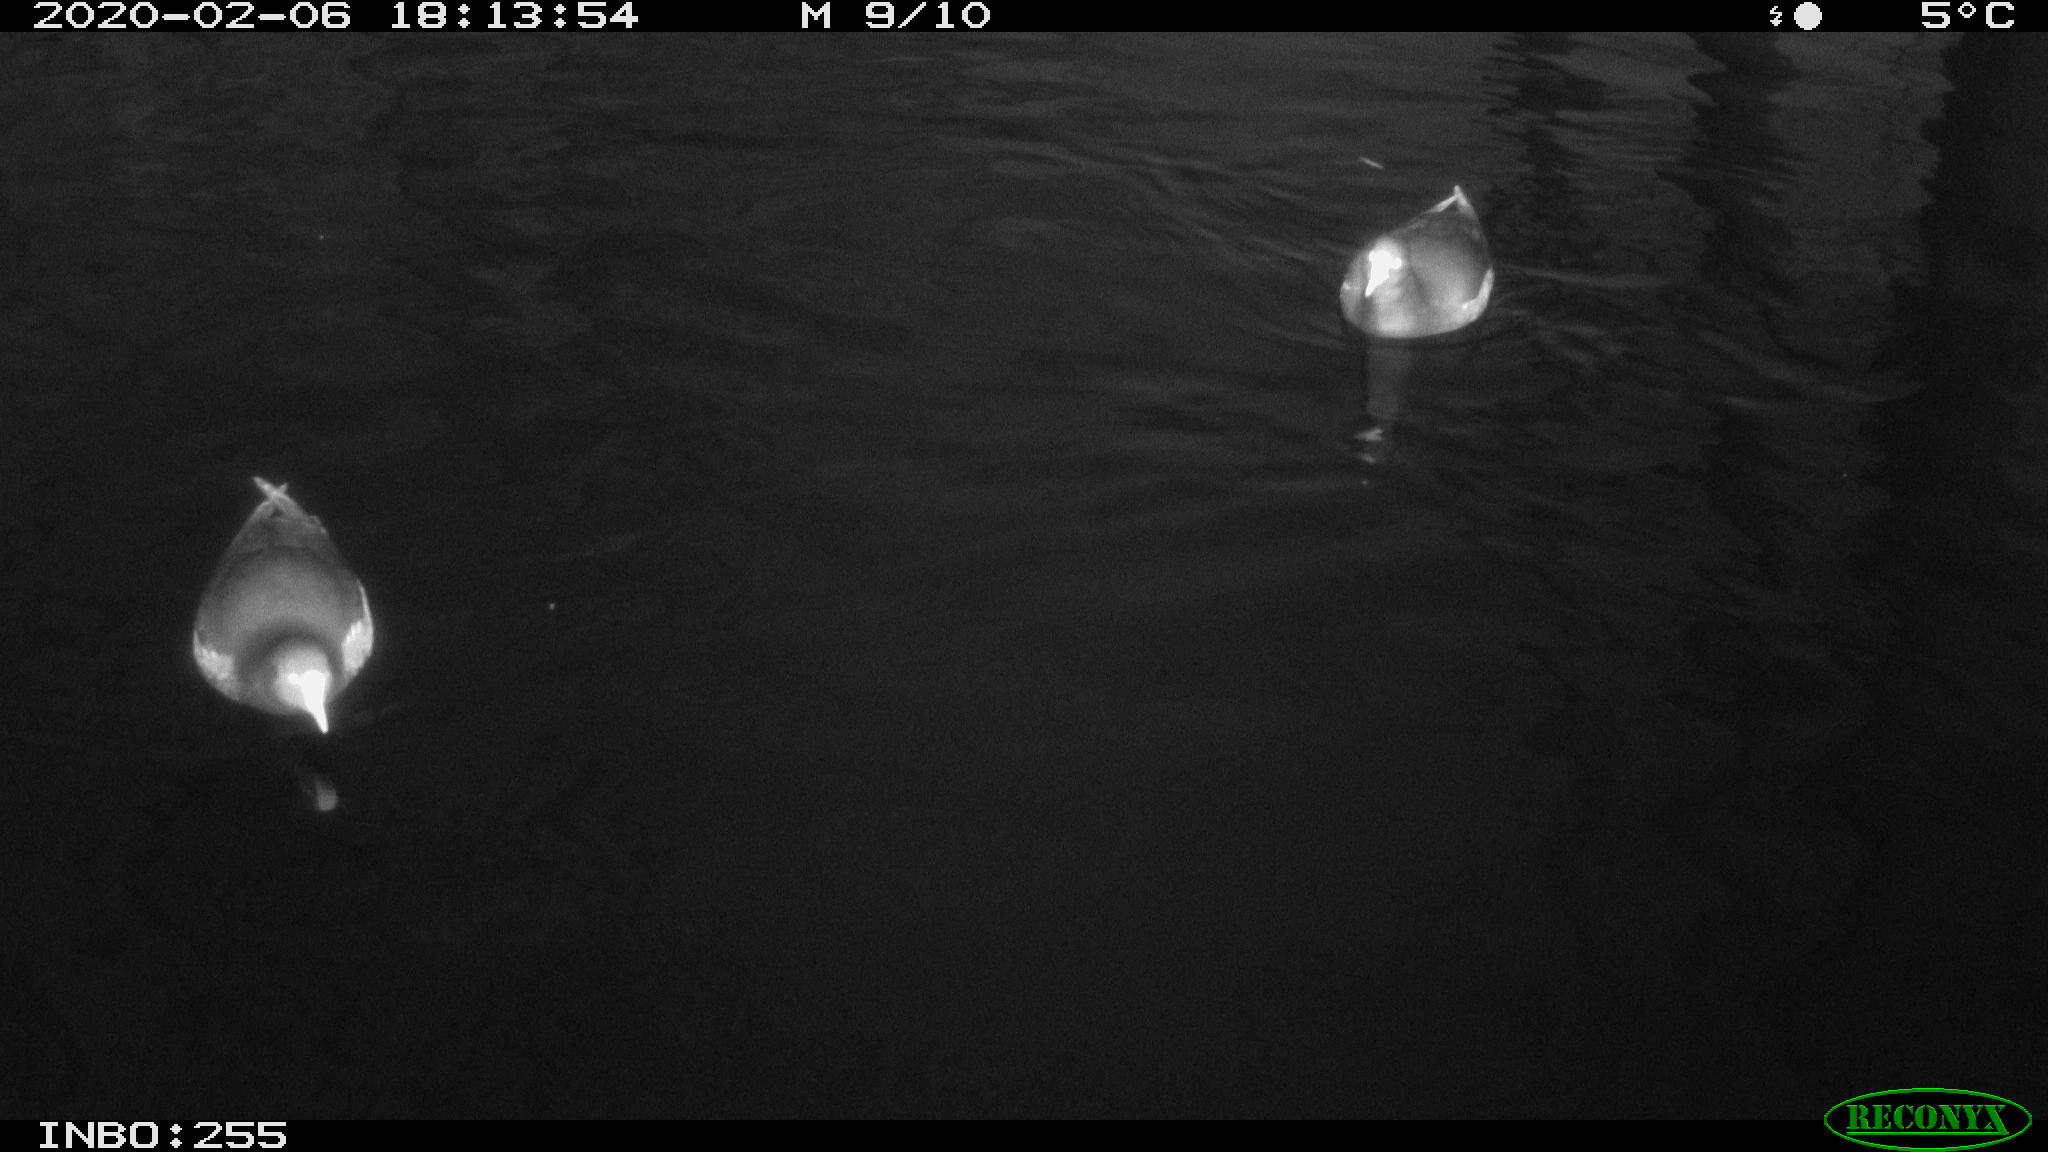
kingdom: Animalia
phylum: Chordata
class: Aves
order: Gruiformes
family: Rallidae
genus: Gallinula
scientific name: Gallinula chloropus
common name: Common moorhen
